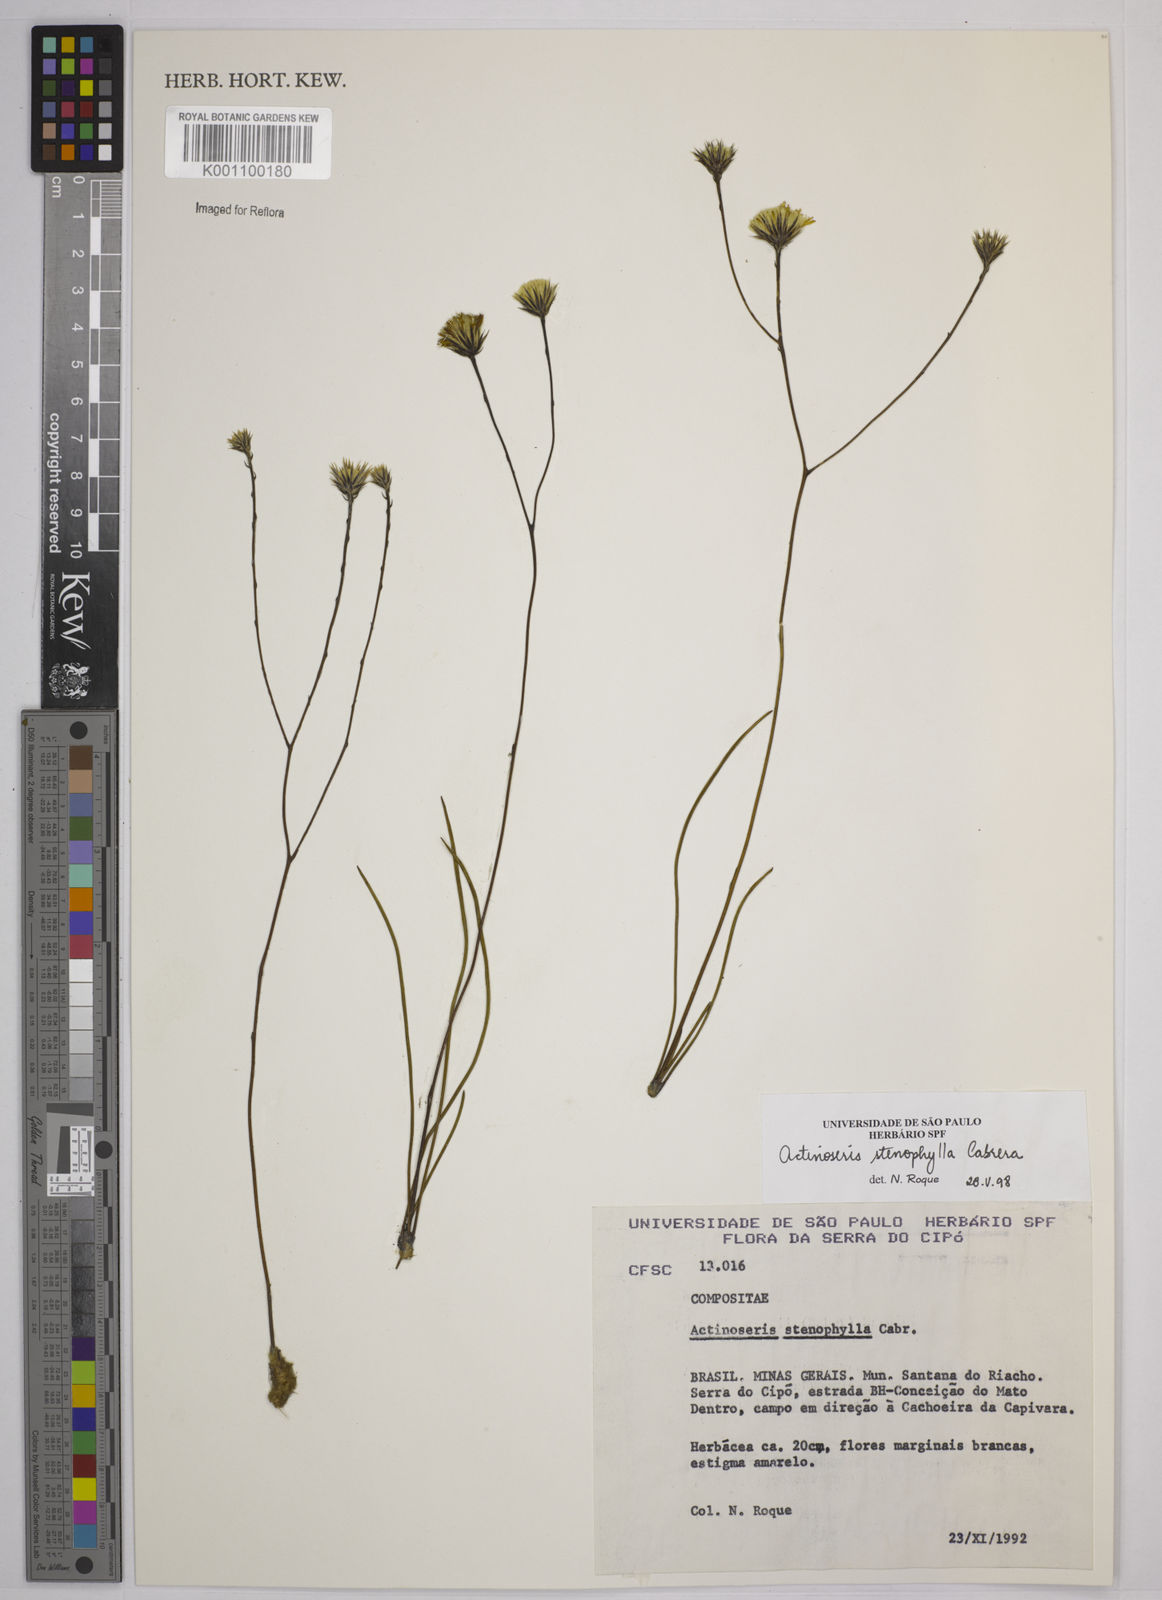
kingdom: Plantae
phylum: Tracheophyta
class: Magnoliopsida
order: Asterales
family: Asteraceae
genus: Richterago
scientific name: Richterago stenophylla
